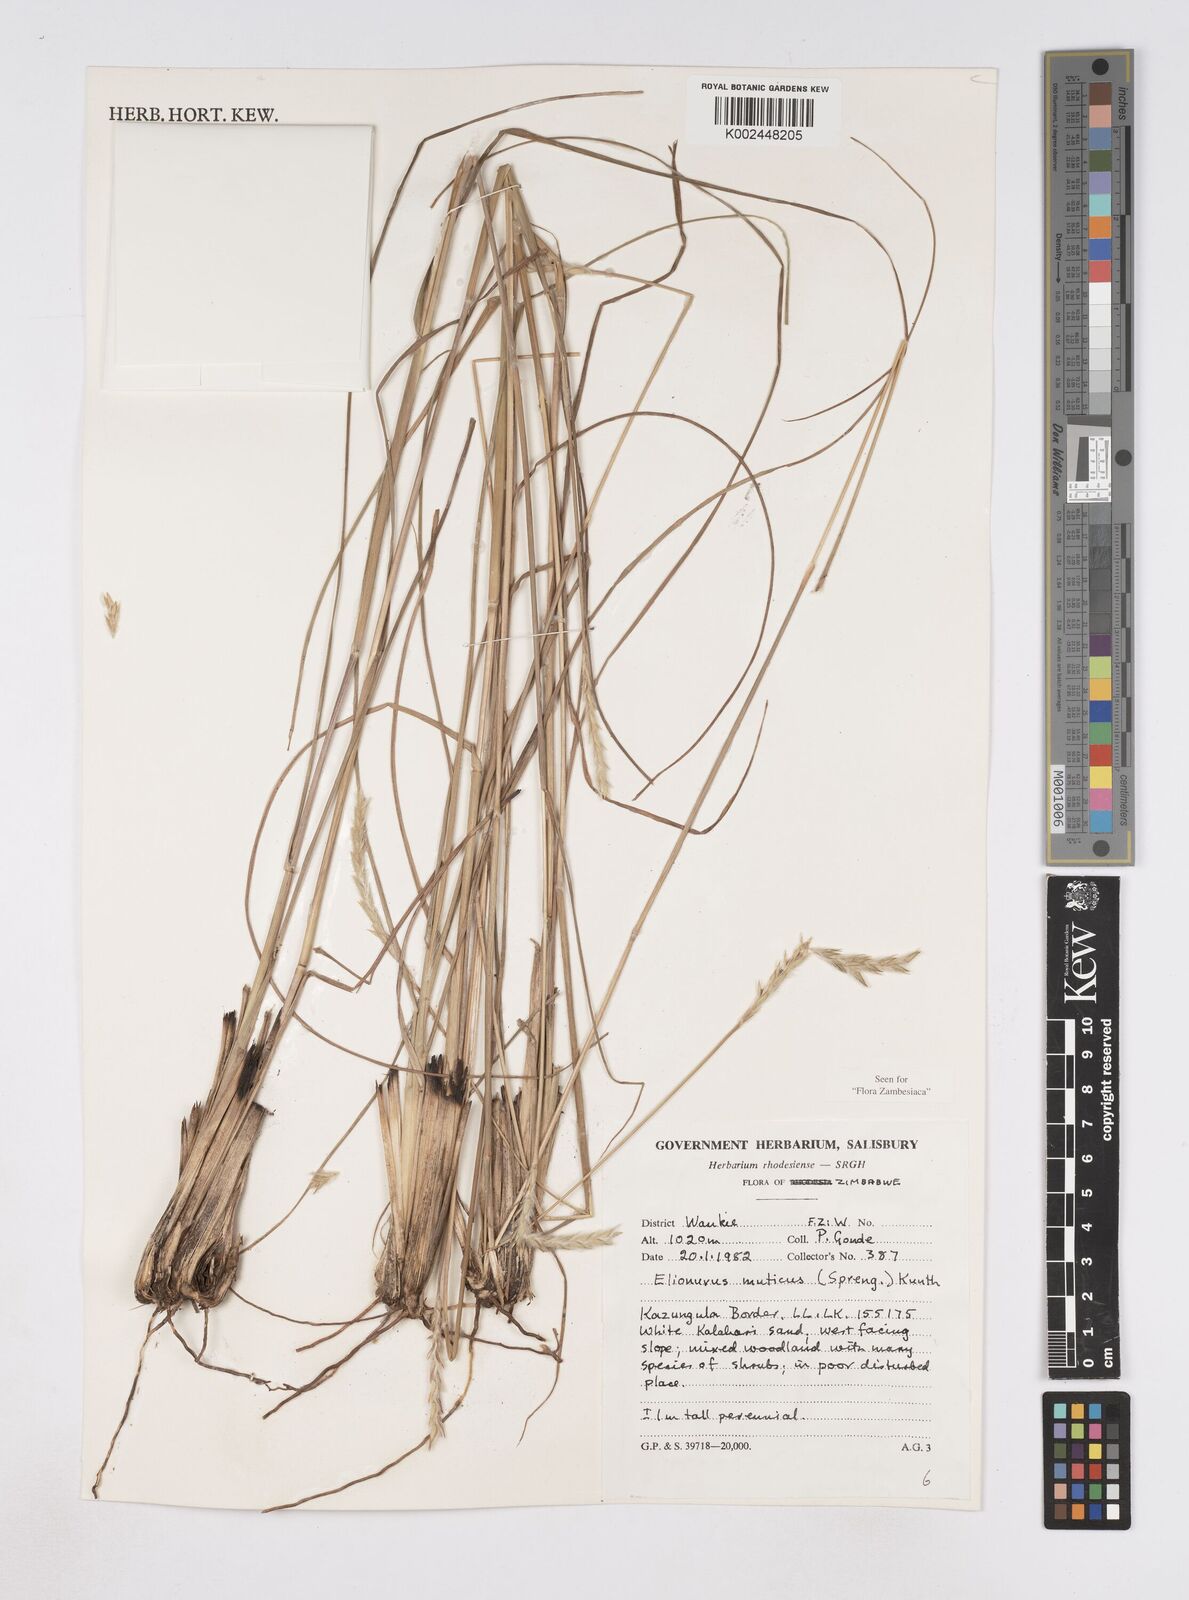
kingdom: Plantae
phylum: Tracheophyta
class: Liliopsida
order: Poales
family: Poaceae
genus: Elionurus
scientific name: Elionurus muticus
